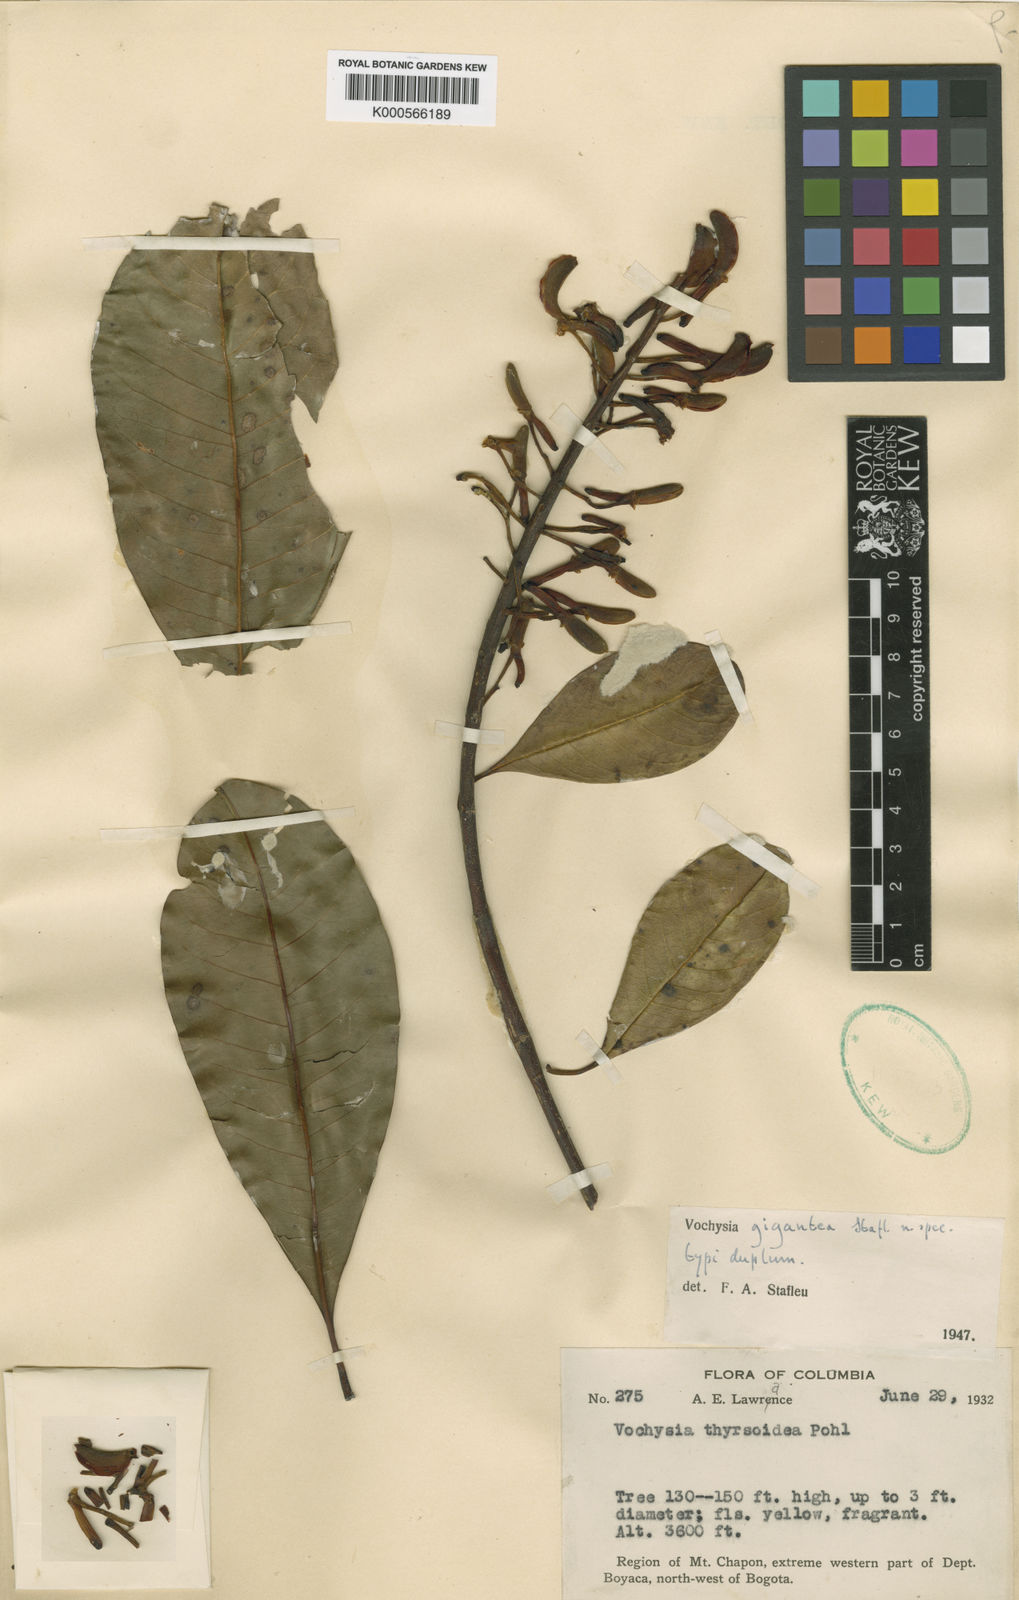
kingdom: Plantae
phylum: Tracheophyta
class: Magnoliopsida
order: Myrtales
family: Vochysiaceae
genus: Vochysia
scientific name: Vochysia aurantiaca
